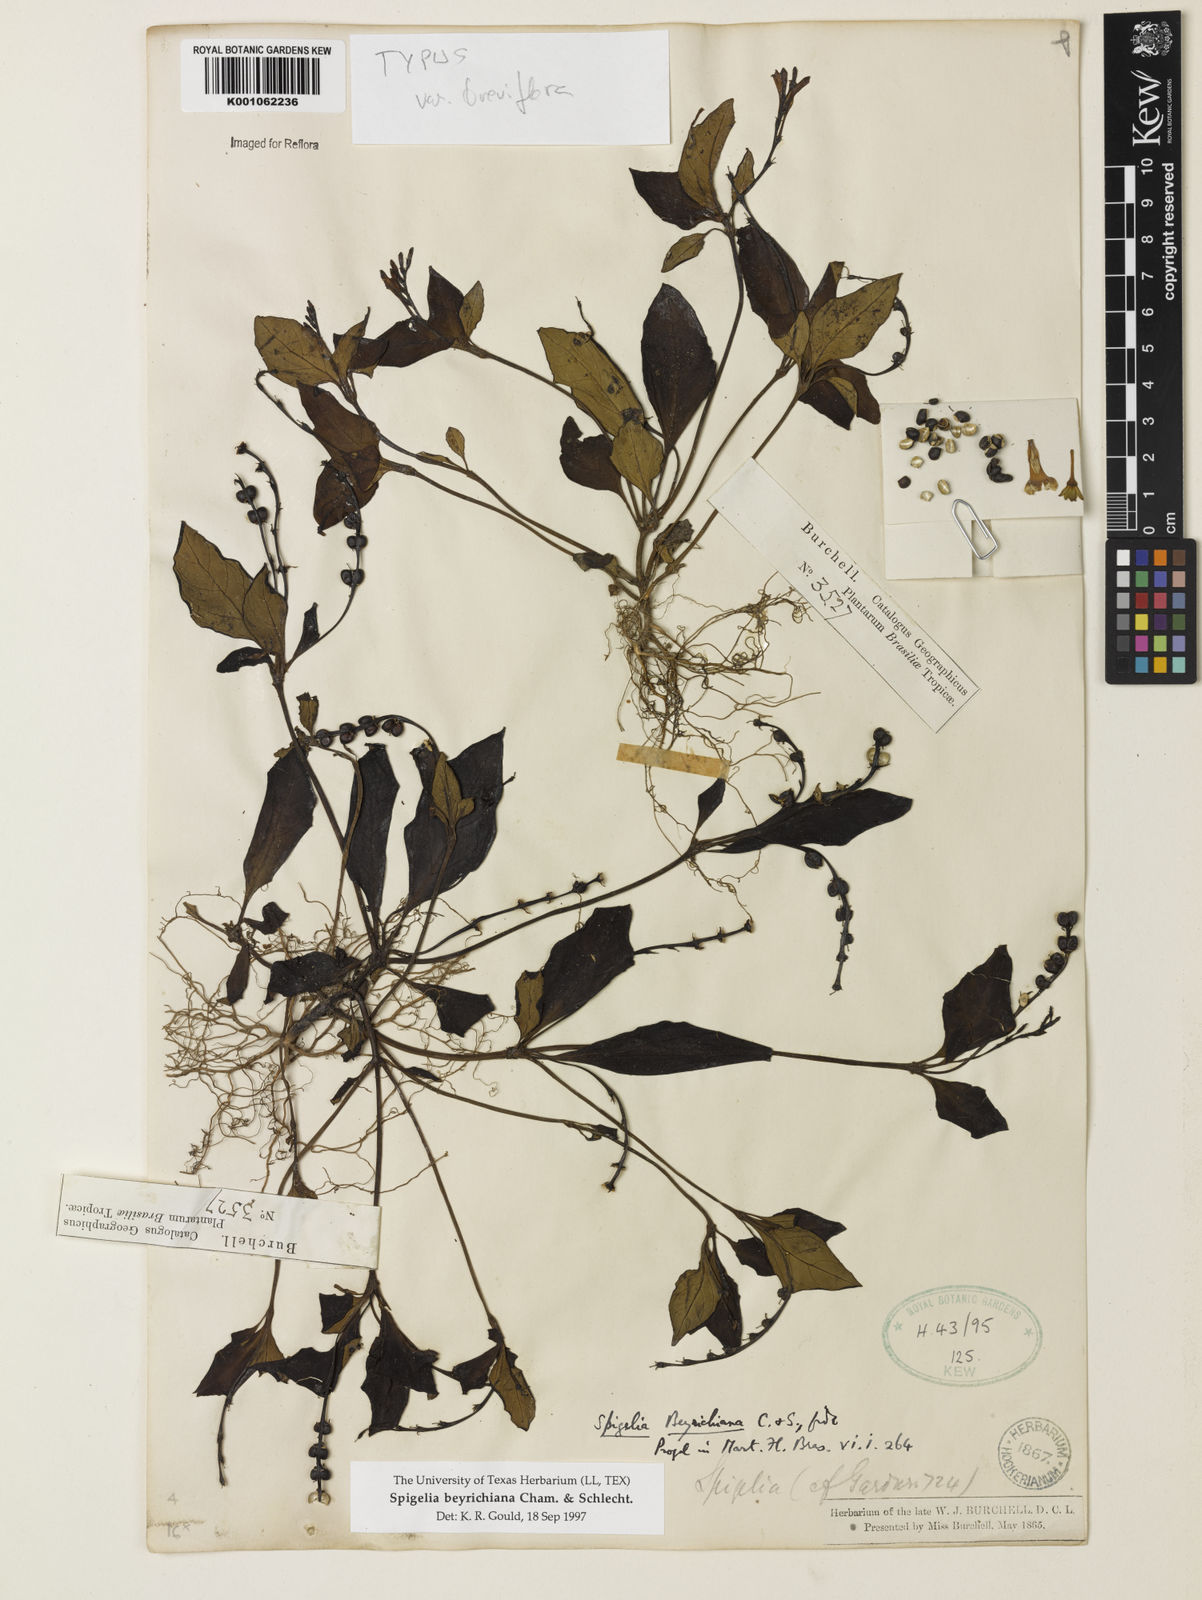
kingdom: Plantae
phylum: Tracheophyta
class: Magnoliopsida
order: Gentianales
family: Loganiaceae
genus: Spigelia
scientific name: Spigelia beyrichiana
